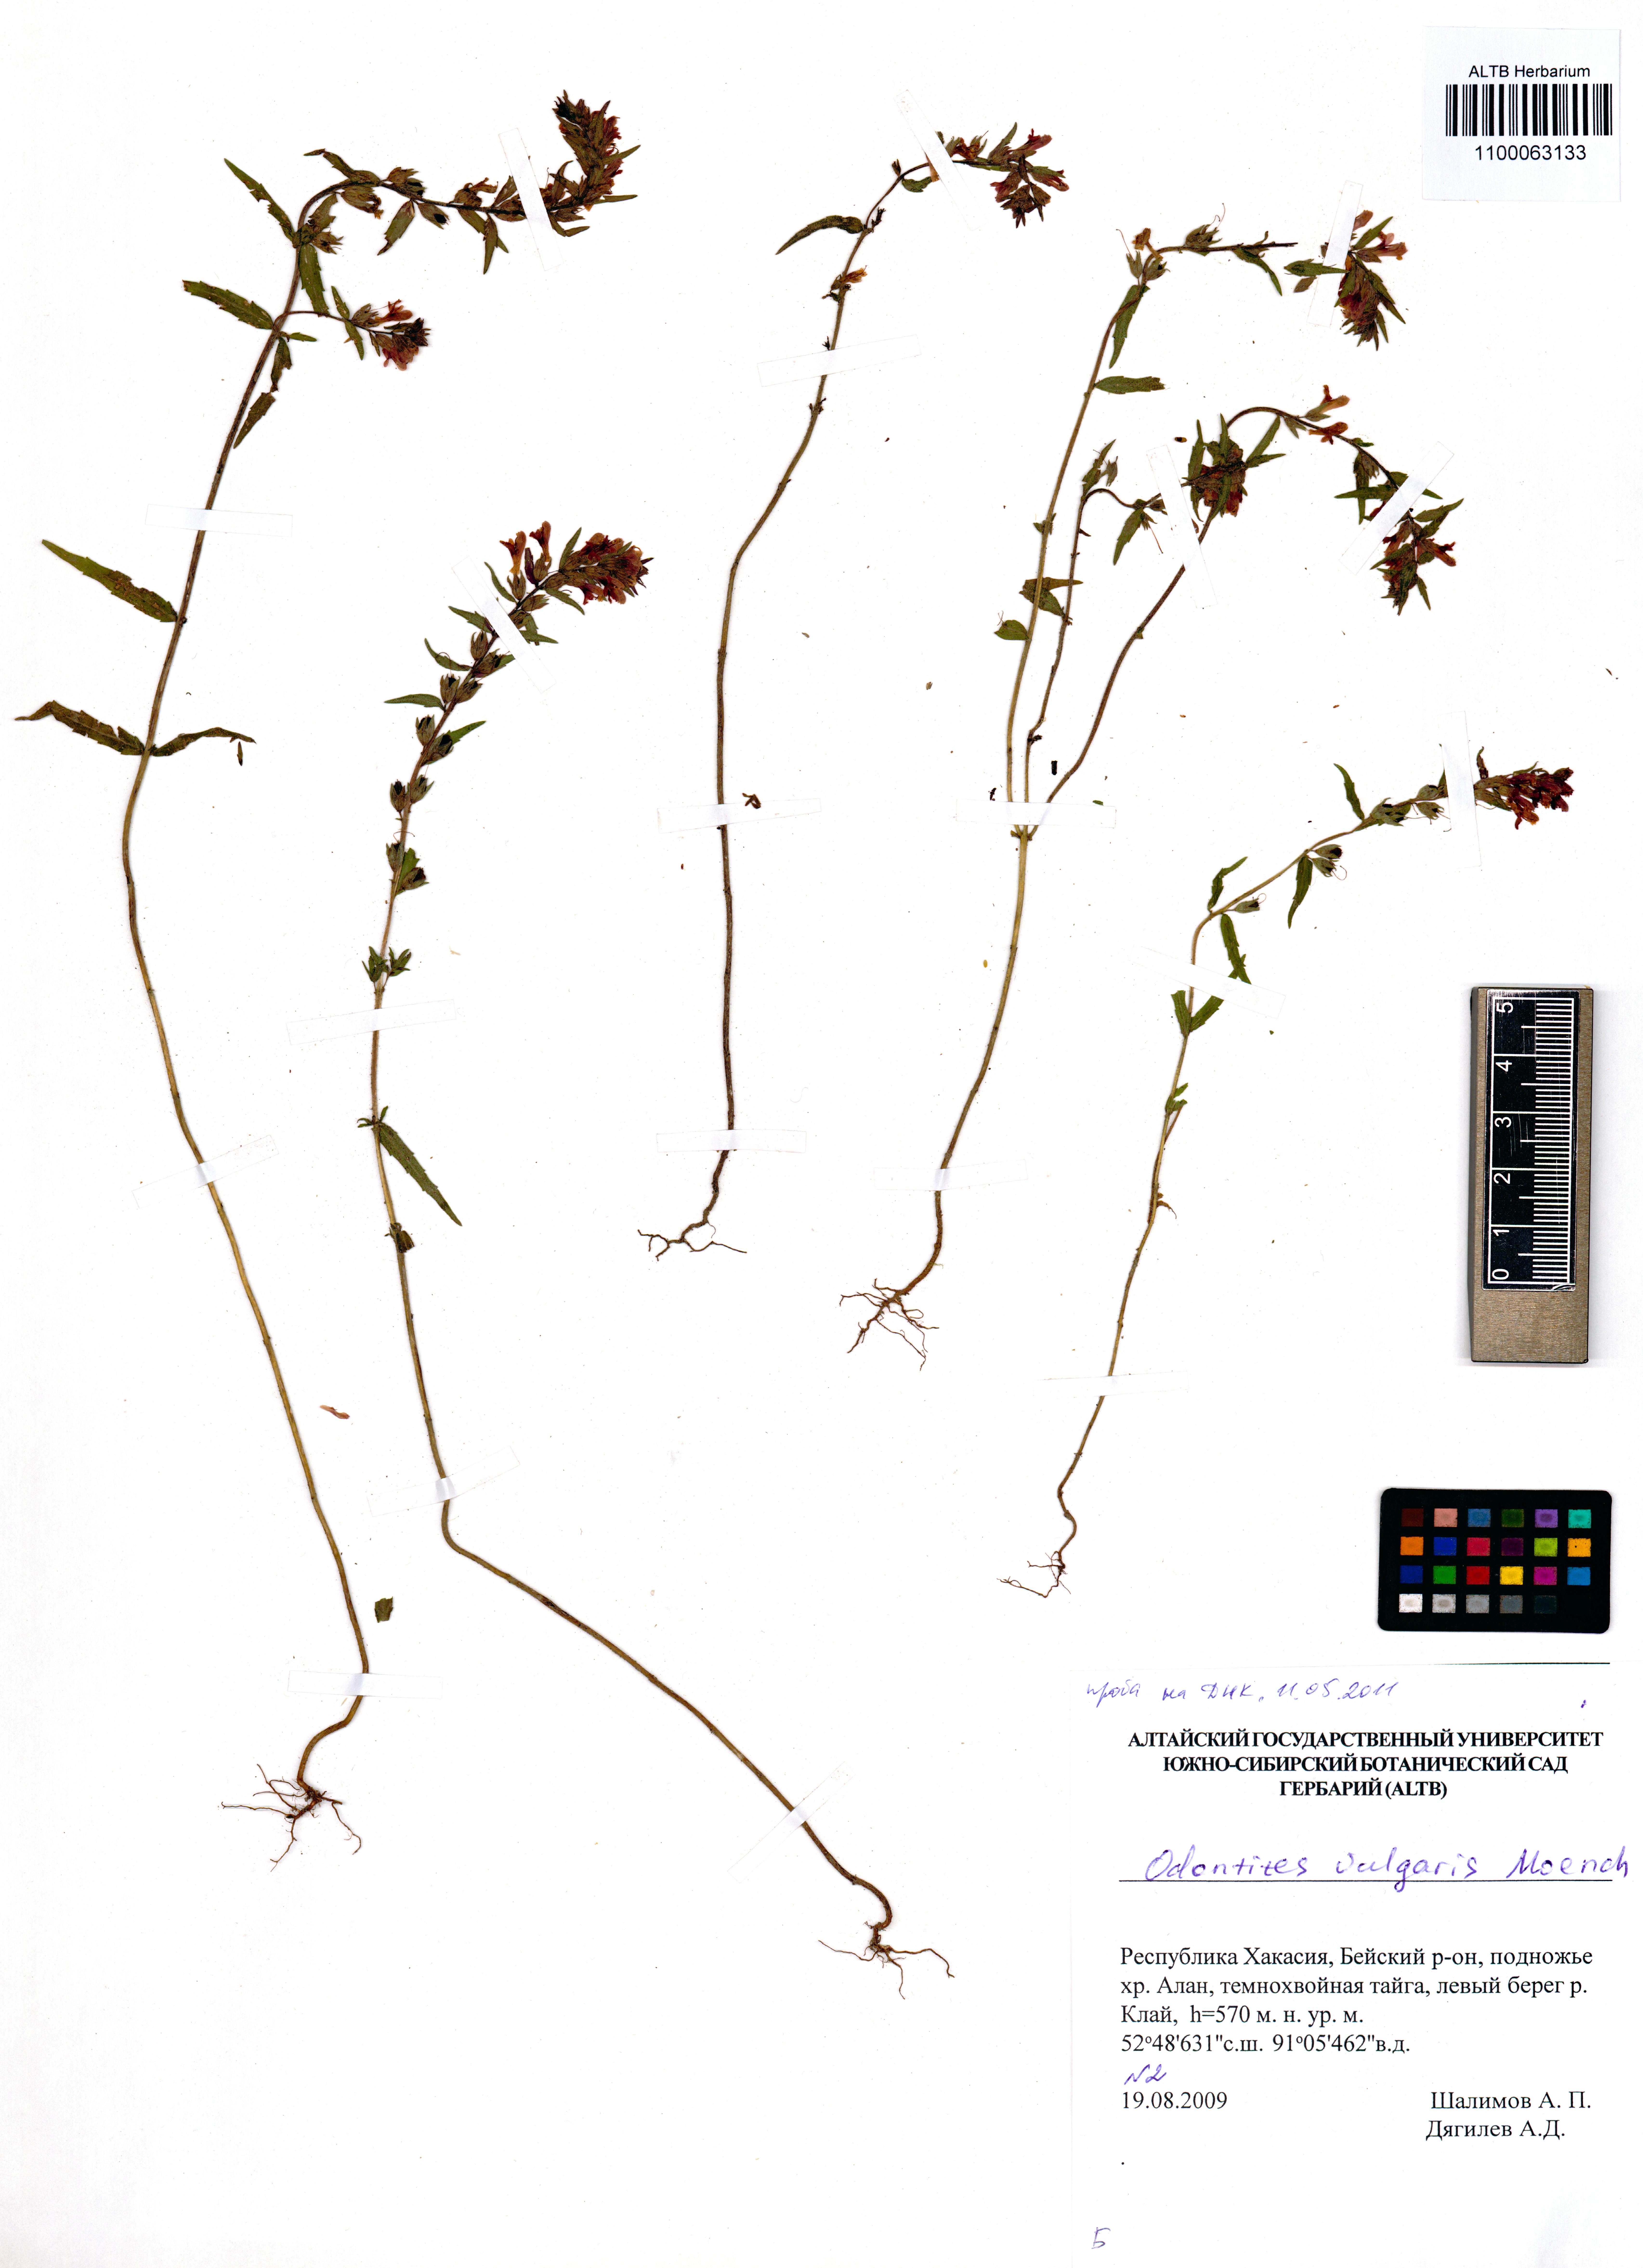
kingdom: Plantae
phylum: Tracheophyta
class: Magnoliopsida
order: Lamiales
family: Orobanchaceae
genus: Odontites
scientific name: Odontites vulgaris
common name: Broomrape
